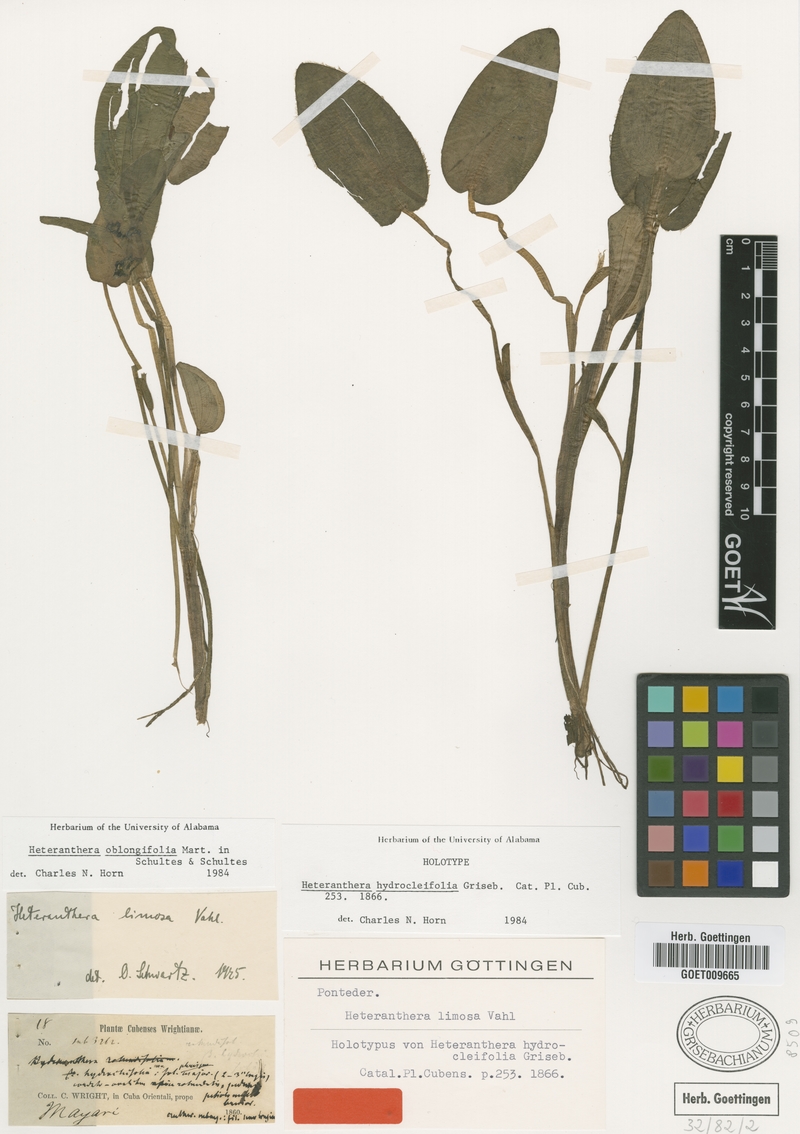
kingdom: Plantae
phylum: Tracheophyta
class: Liliopsida
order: Commelinales
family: Pontederiaceae
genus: Heteranthera
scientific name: Heteranthera oblongifolia
